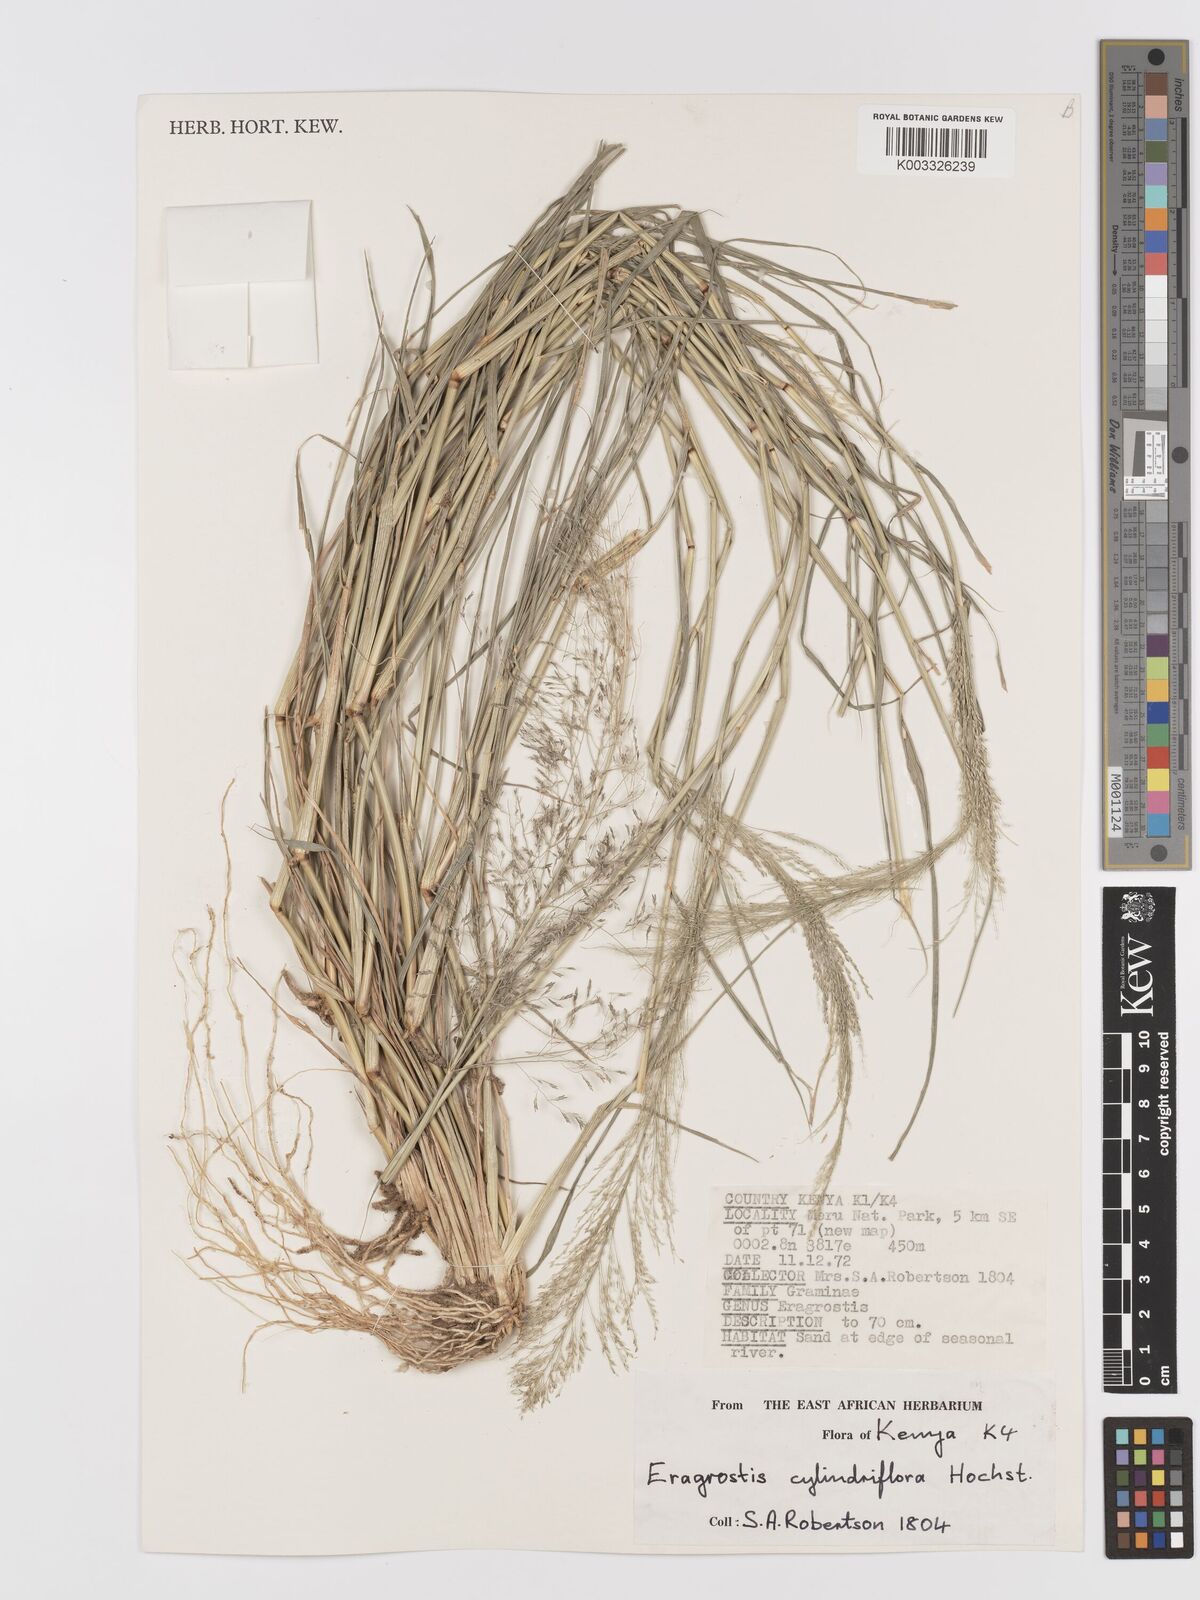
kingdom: Plantae
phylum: Tracheophyta
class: Liliopsida
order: Poales
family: Poaceae
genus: Eragrostis
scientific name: Eragrostis cylindriflora
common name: Cylinderflower lovegrass
